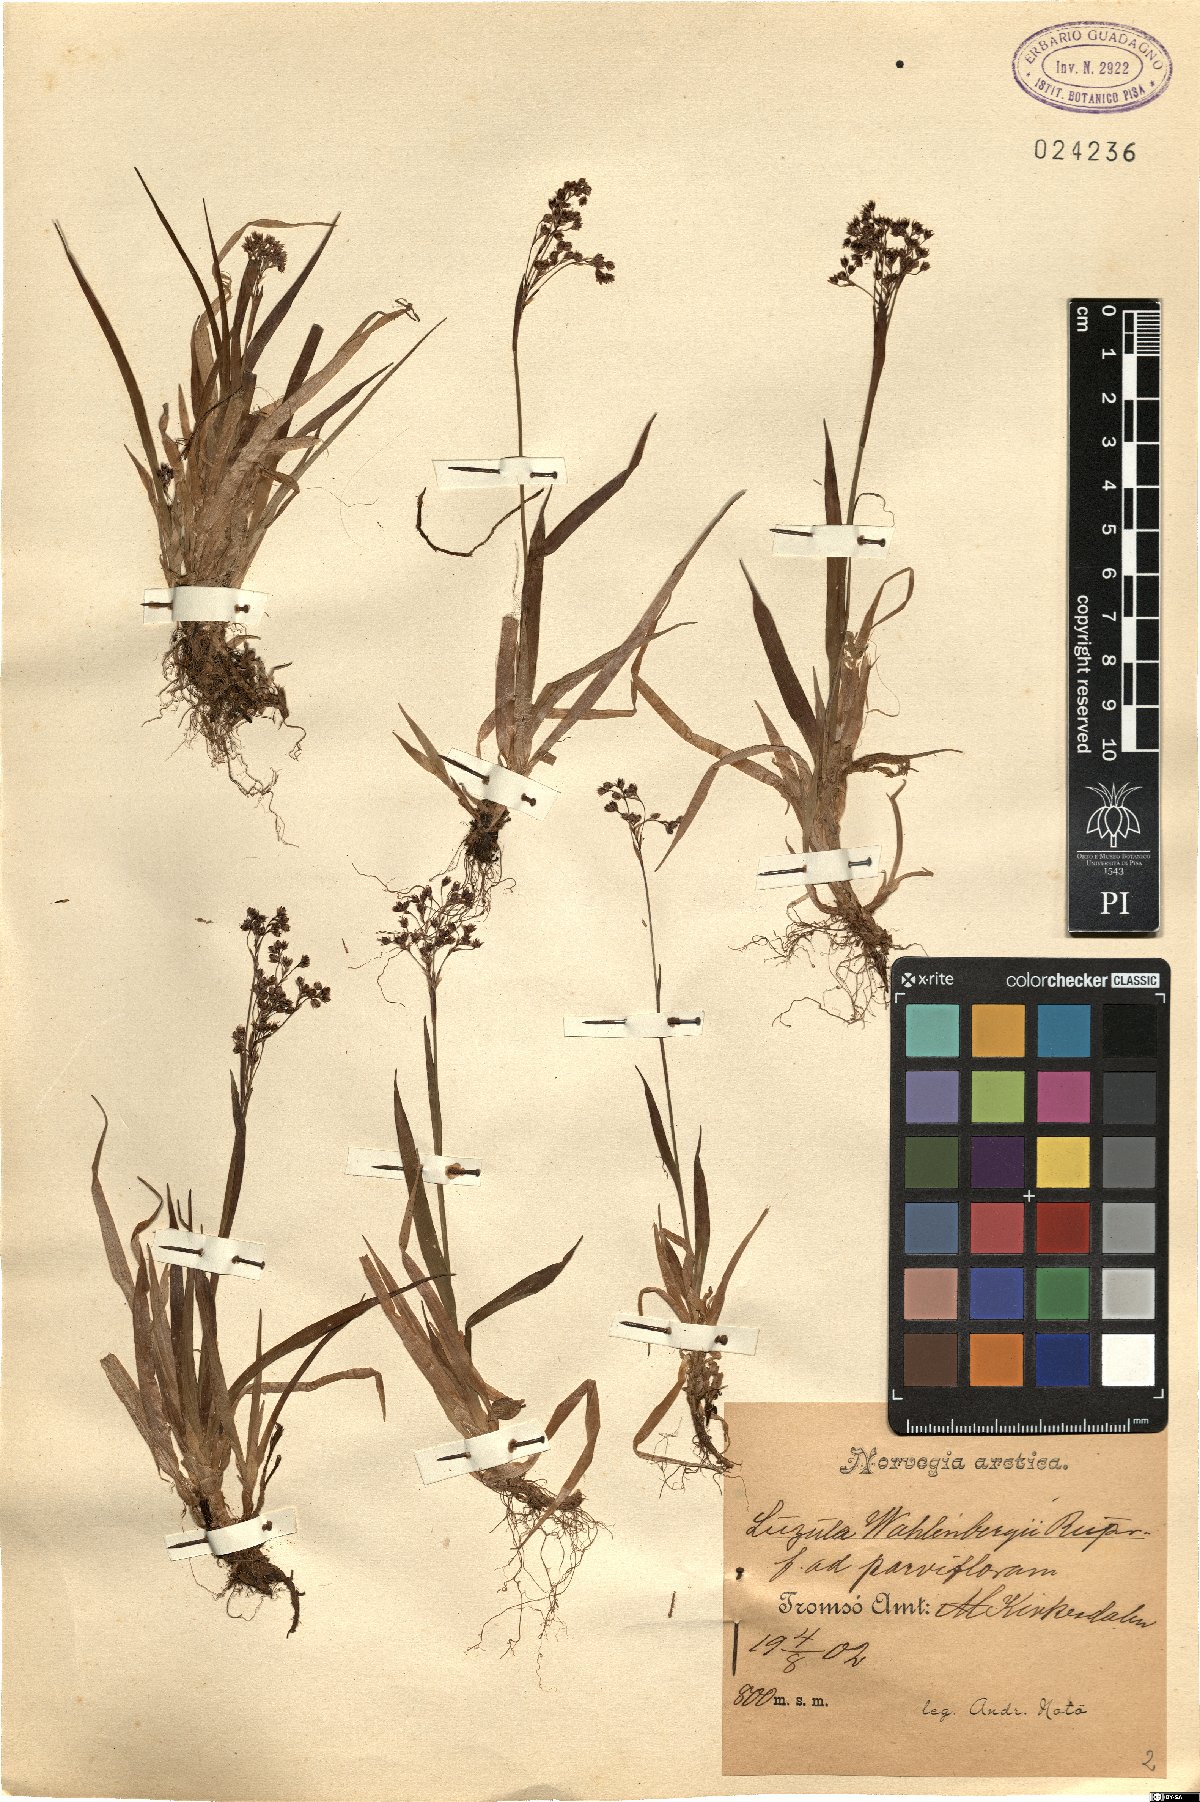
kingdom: Plantae
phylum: Tracheophyta
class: Liliopsida
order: Poales
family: Juncaceae
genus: Luzula
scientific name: Luzula wahlenbergii
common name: Wahlenberg's wood-rush
